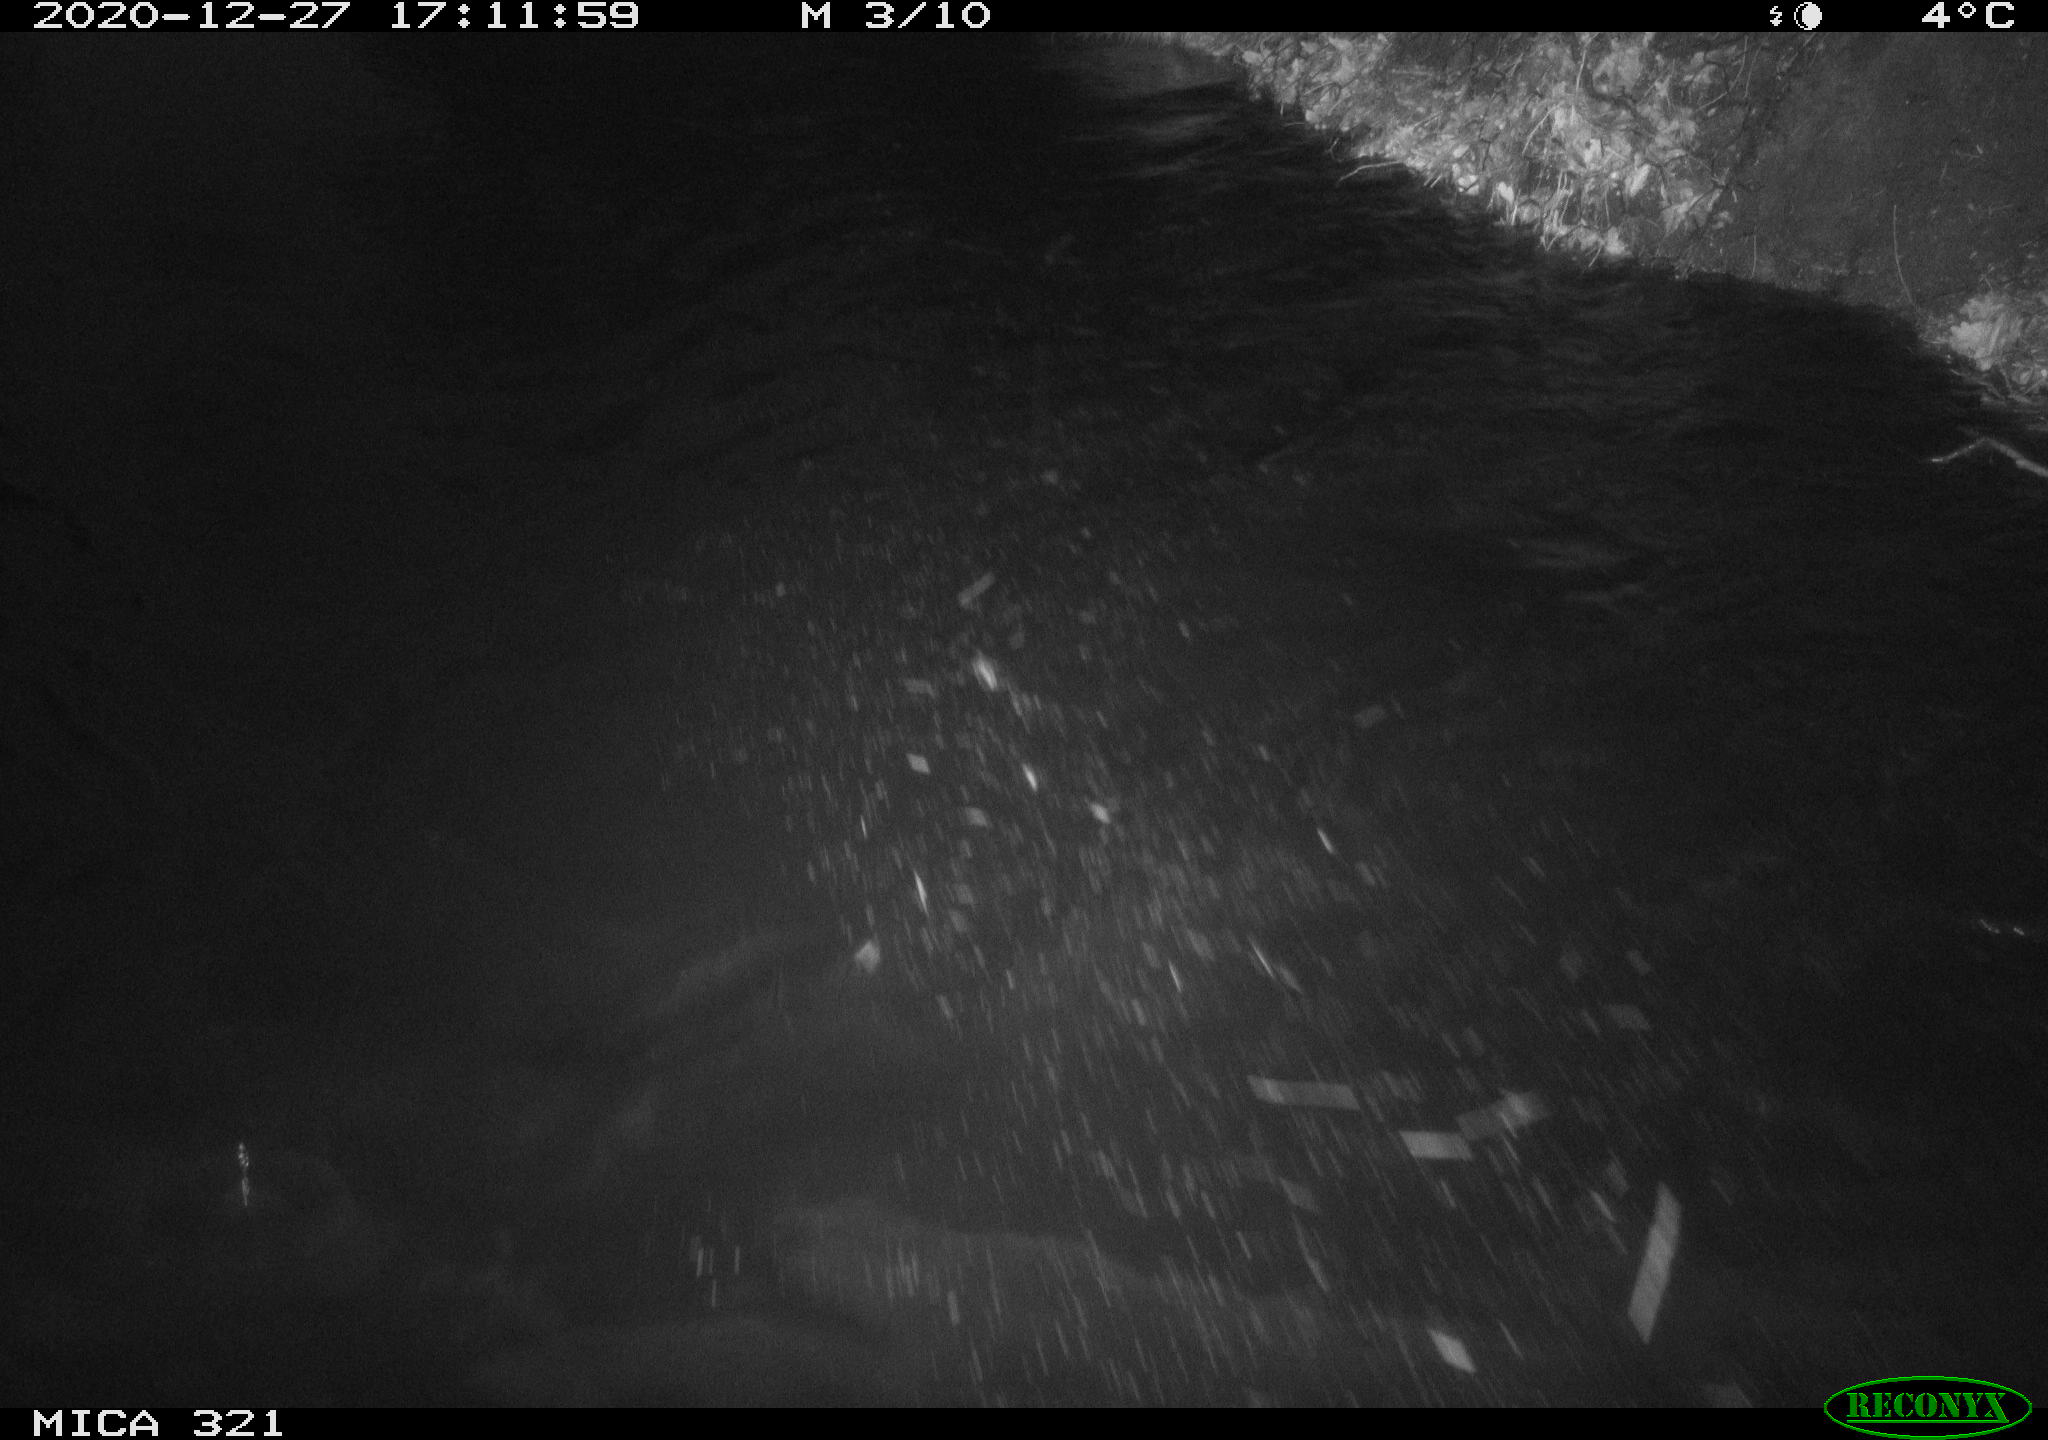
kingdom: Animalia
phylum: Chordata
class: Aves
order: Anseriformes
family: Anatidae
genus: Anas
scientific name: Anas platyrhynchos
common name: Mallard
